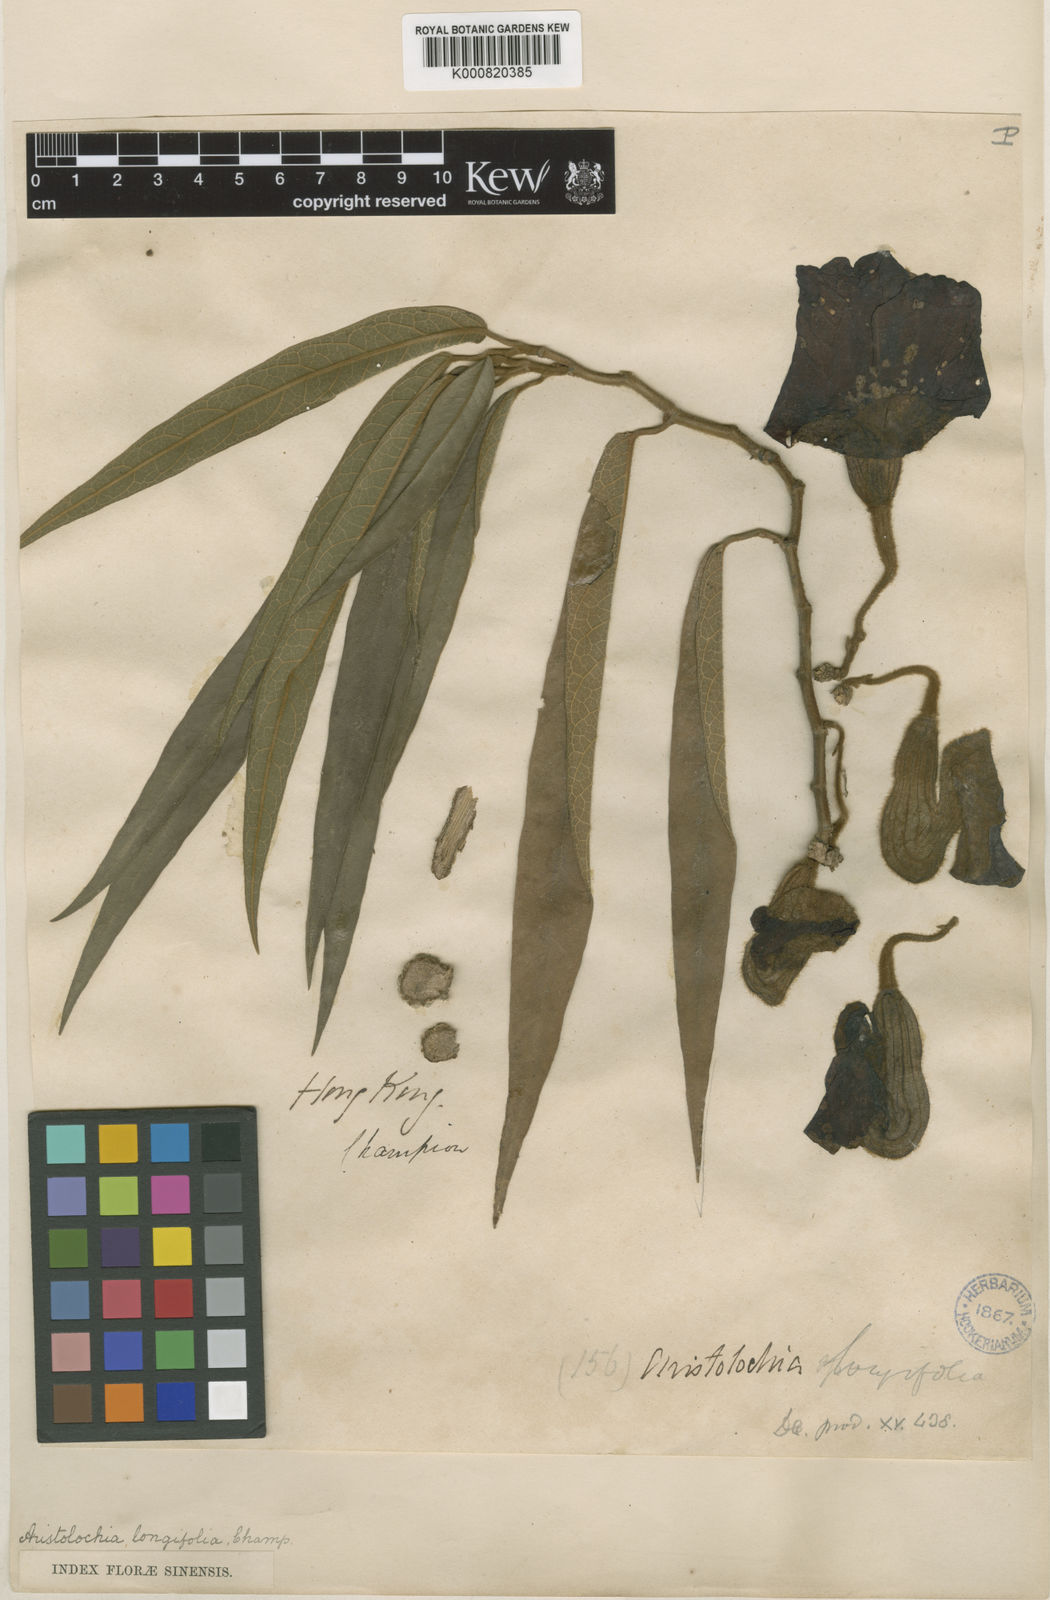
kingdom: Plantae
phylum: Tracheophyta
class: Magnoliopsida
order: Piperales
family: Aristolochiaceae
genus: Isotrema
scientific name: Isotrema
